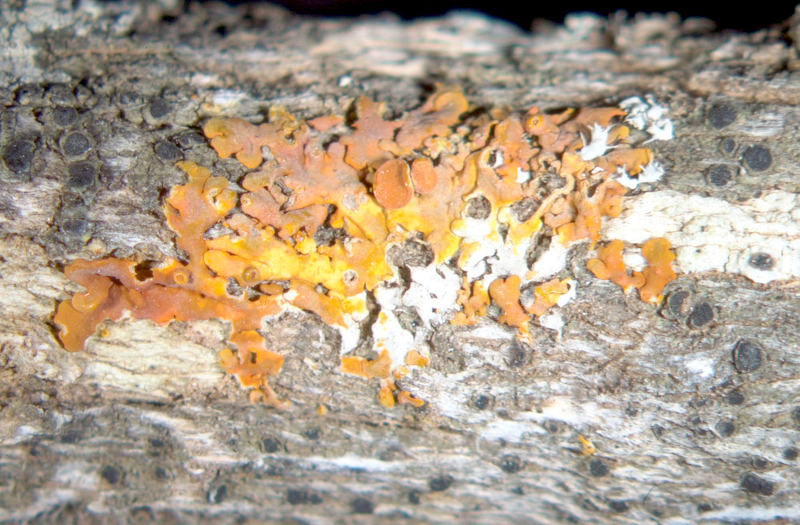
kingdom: Fungi
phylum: Ascomycota
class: Lecanoromycetes
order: Teloschistales
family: Teloschistaceae
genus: Xanthoria
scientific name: Xanthoria
